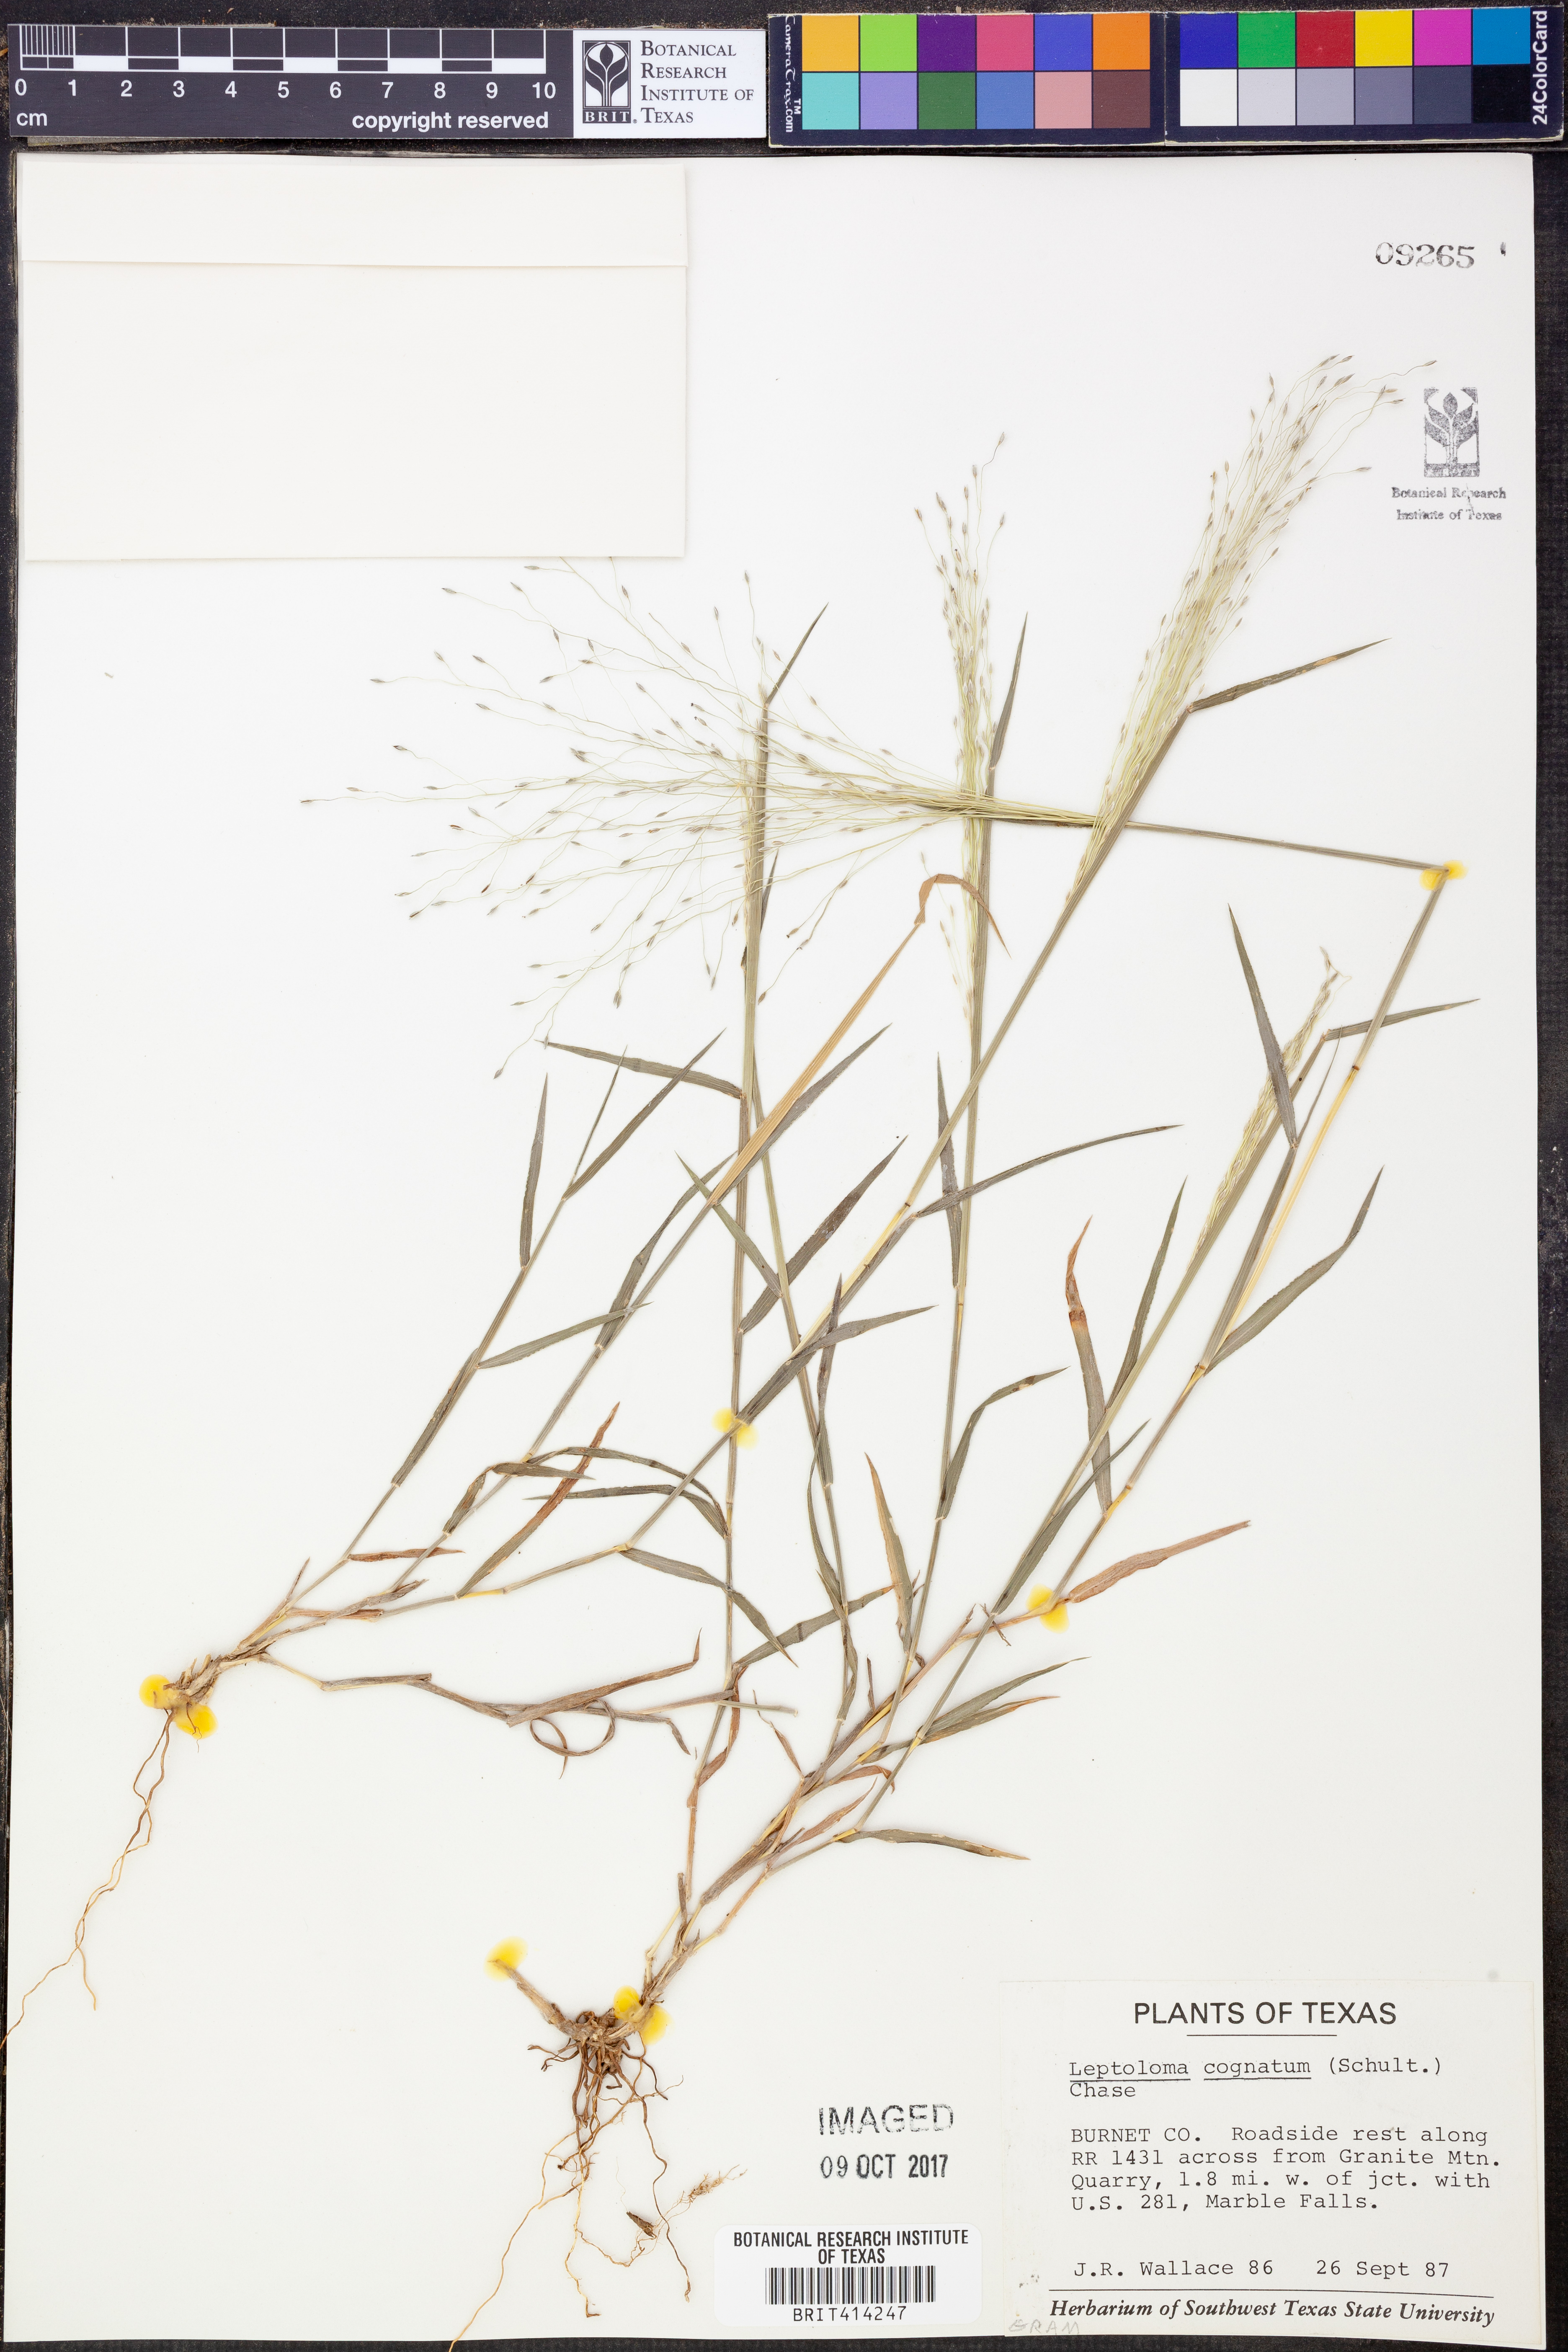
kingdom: Plantae
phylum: Tracheophyta
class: Liliopsida
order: Poales
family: Poaceae
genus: Digitaria
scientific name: Digitaria cognata
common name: Fall witchgrass
